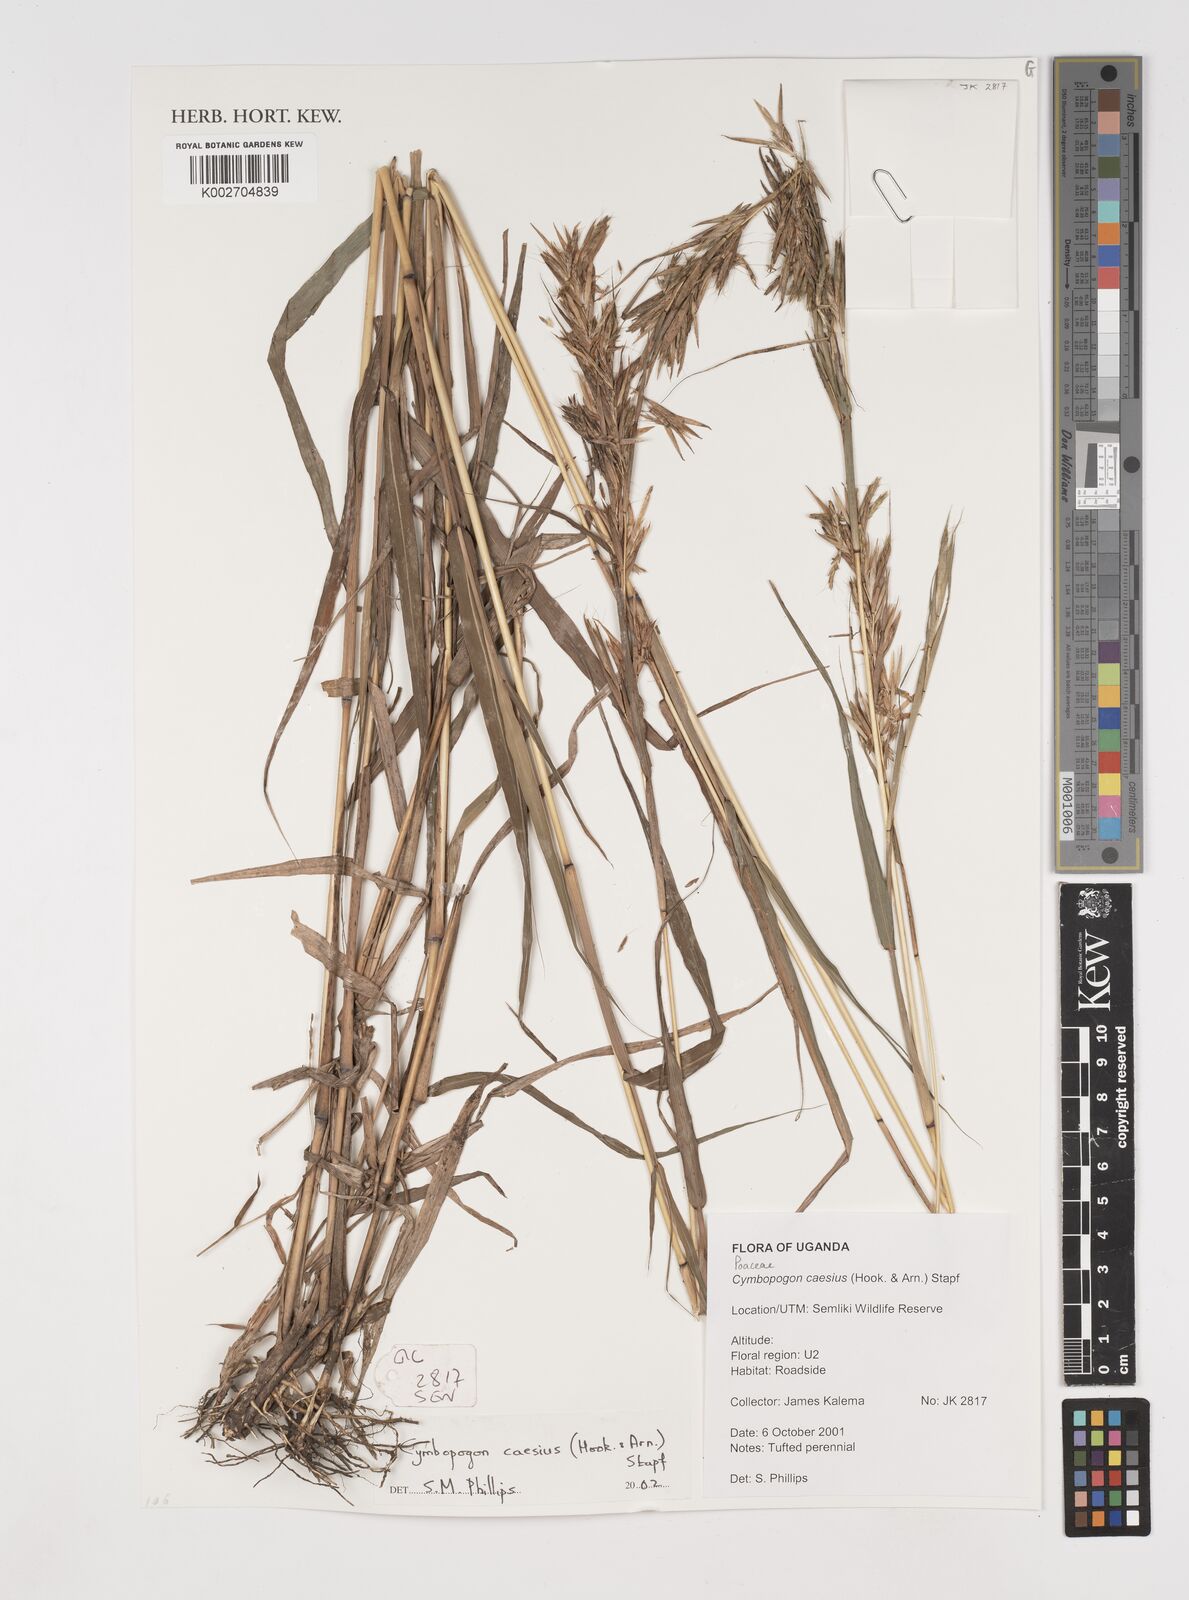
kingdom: Plantae
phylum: Tracheophyta
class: Liliopsida
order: Poales
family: Poaceae
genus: Cymbopogon
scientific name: Cymbopogon caesius
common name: Kachi grass
